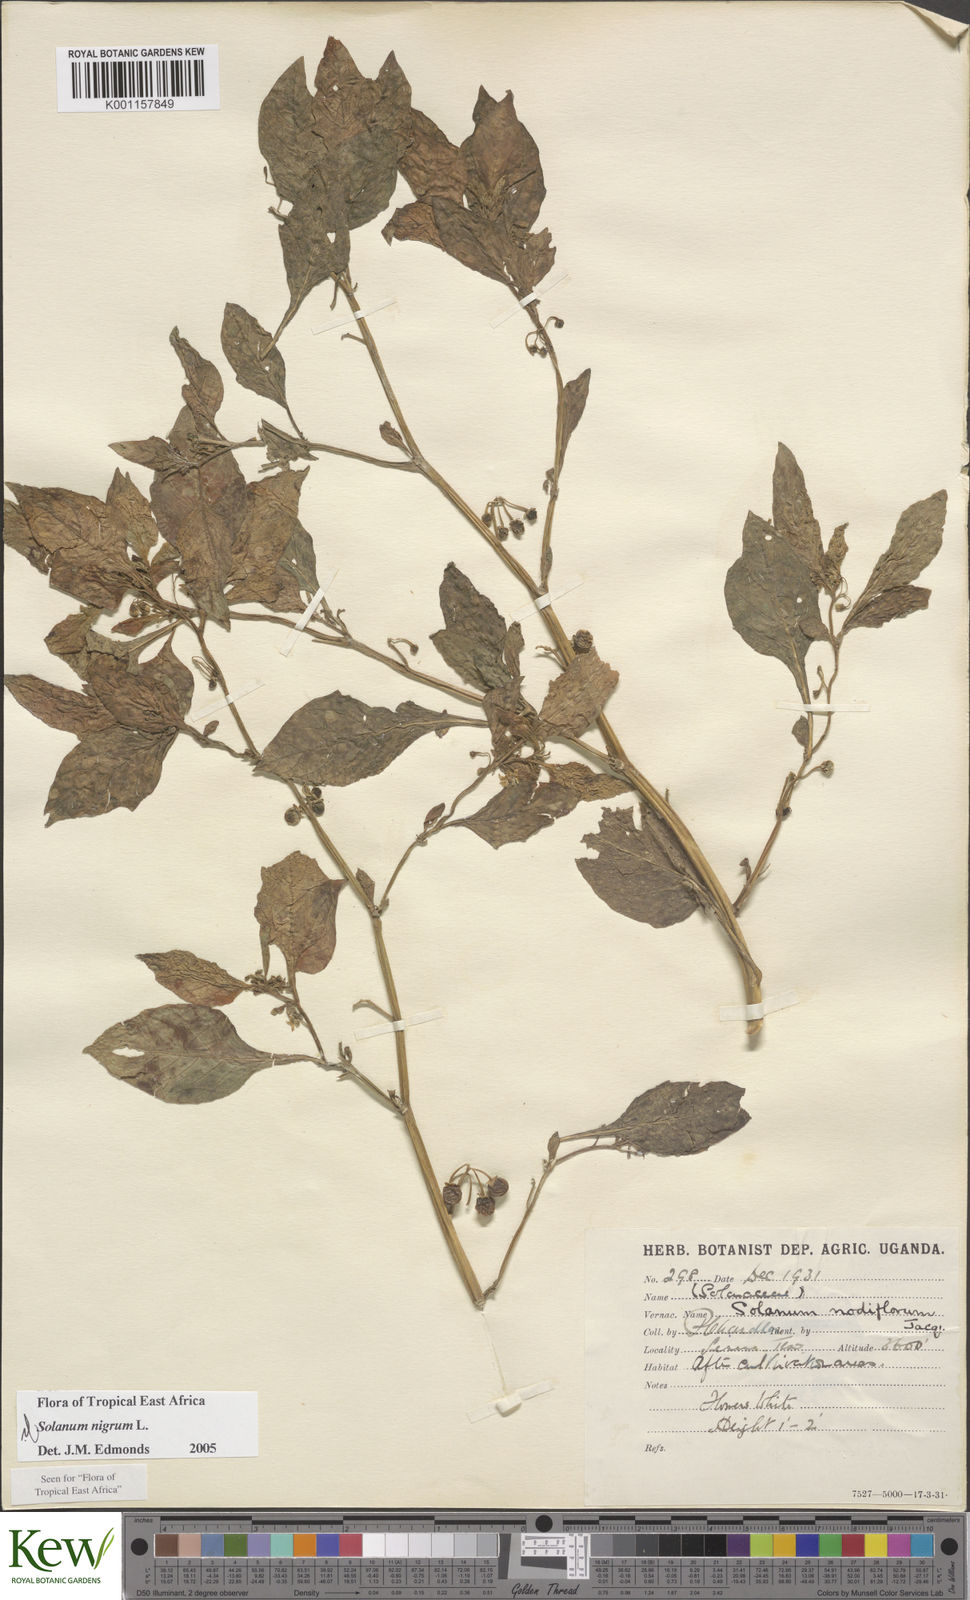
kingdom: Plantae
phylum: Tracheophyta
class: Magnoliopsida
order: Solanales
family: Solanaceae
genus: Solanum
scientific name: Solanum nigrum
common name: Black nightshade
